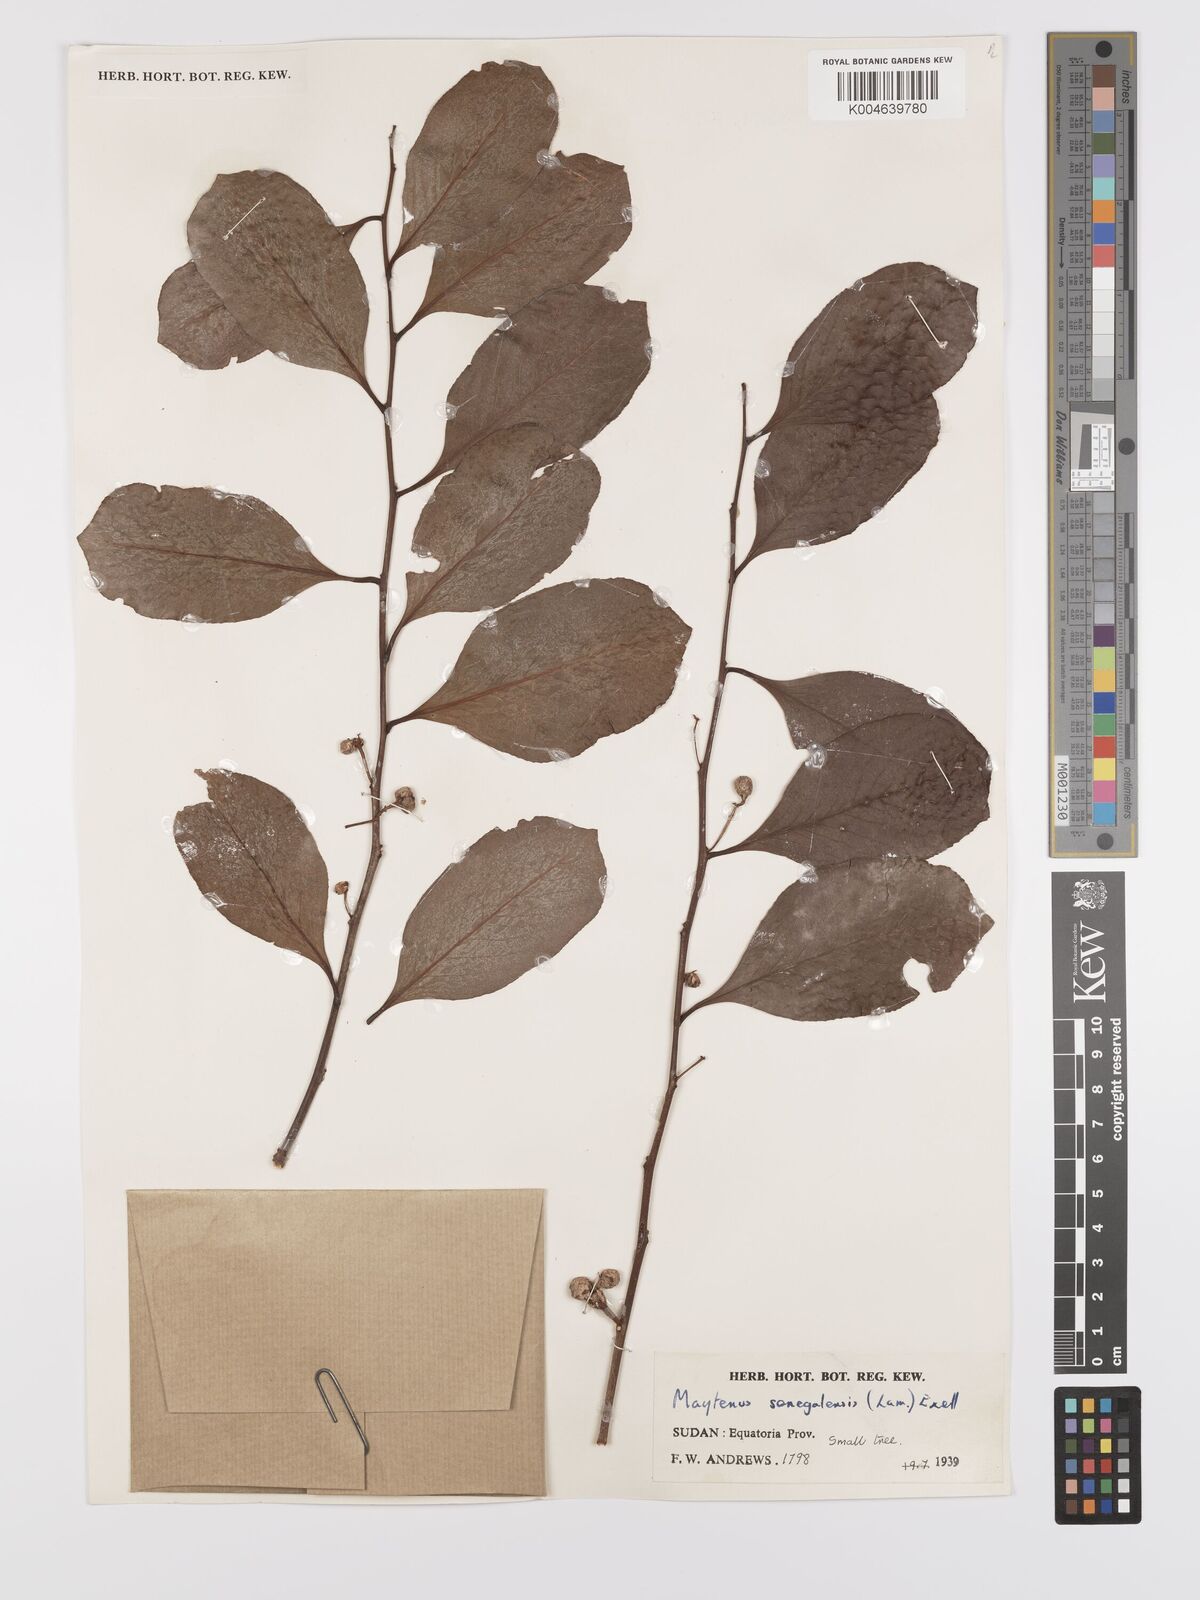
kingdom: Plantae
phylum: Tracheophyta
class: Magnoliopsida
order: Celastrales
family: Celastraceae
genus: Gymnosporia
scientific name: Gymnosporia senegalensis
